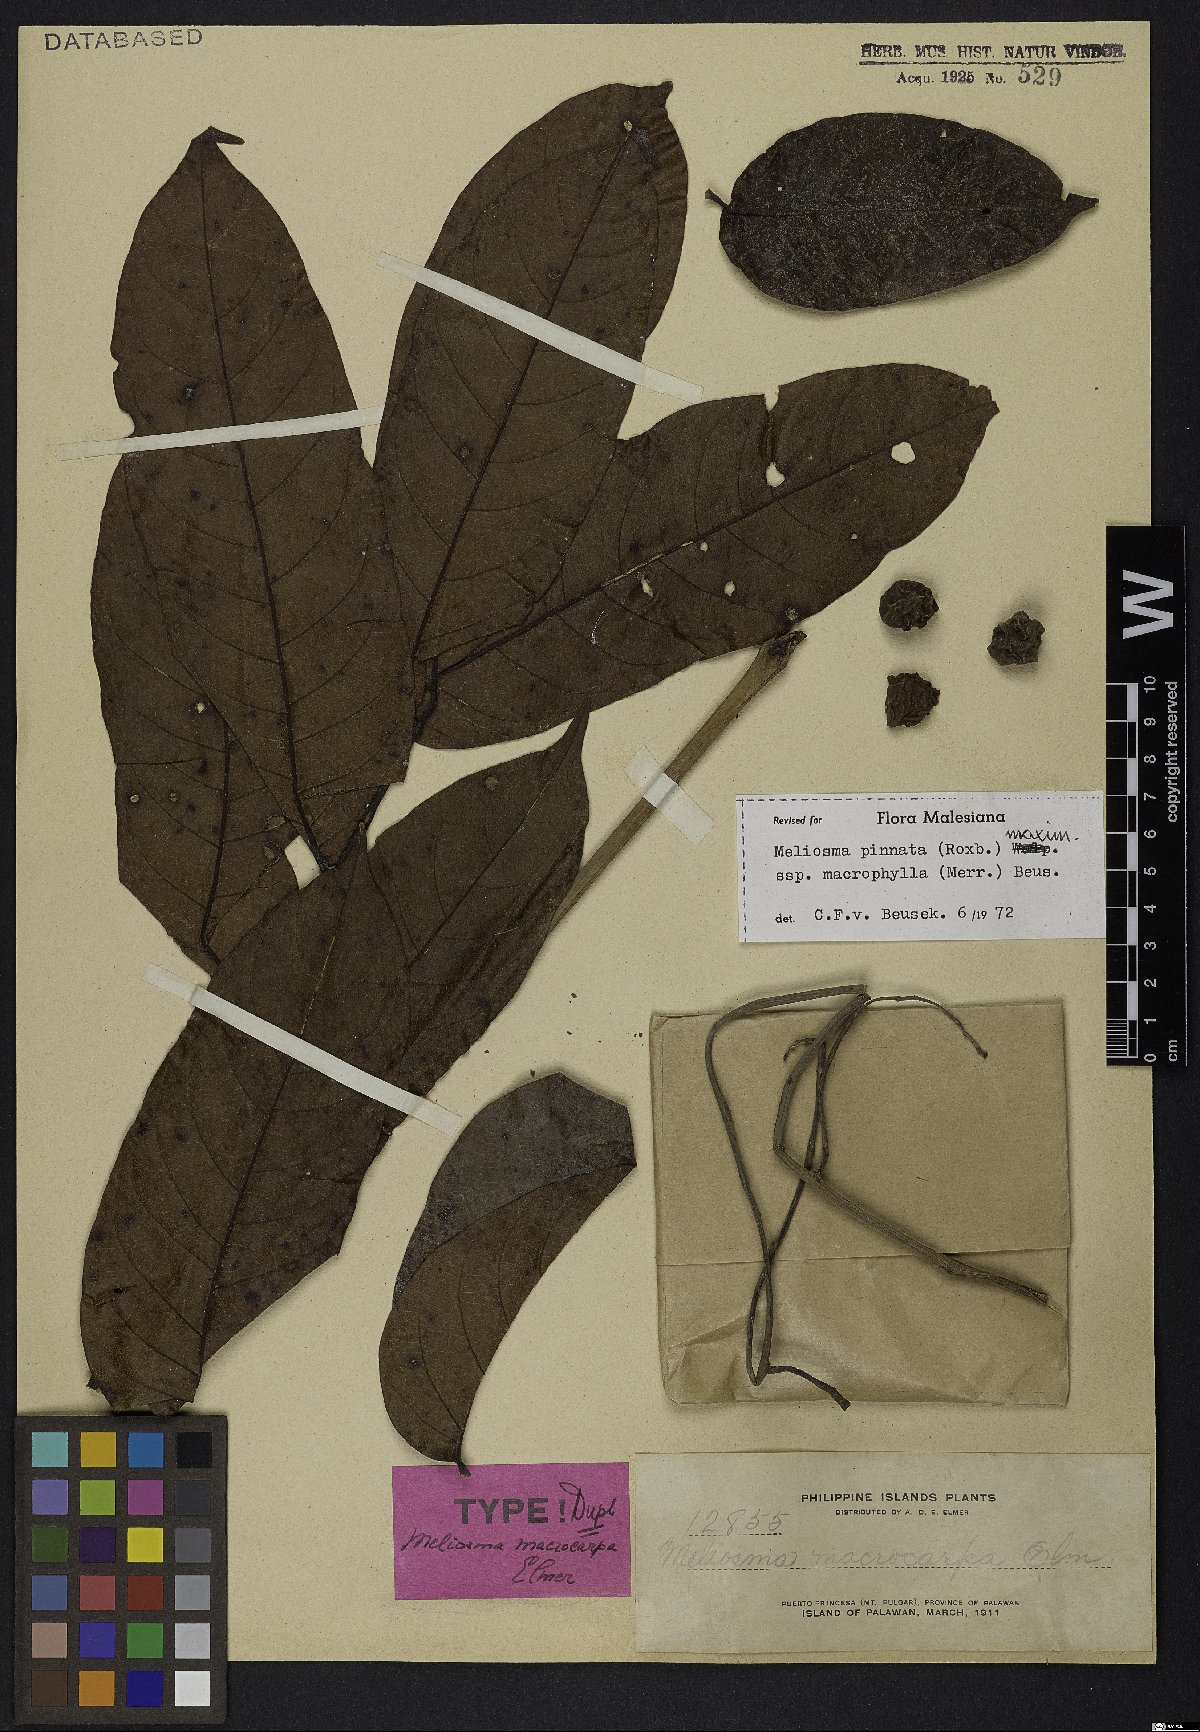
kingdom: Plantae
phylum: Tracheophyta
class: Magnoliopsida
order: Proteales
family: Sabiaceae
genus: Meliosma
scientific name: Meliosma pinnata
